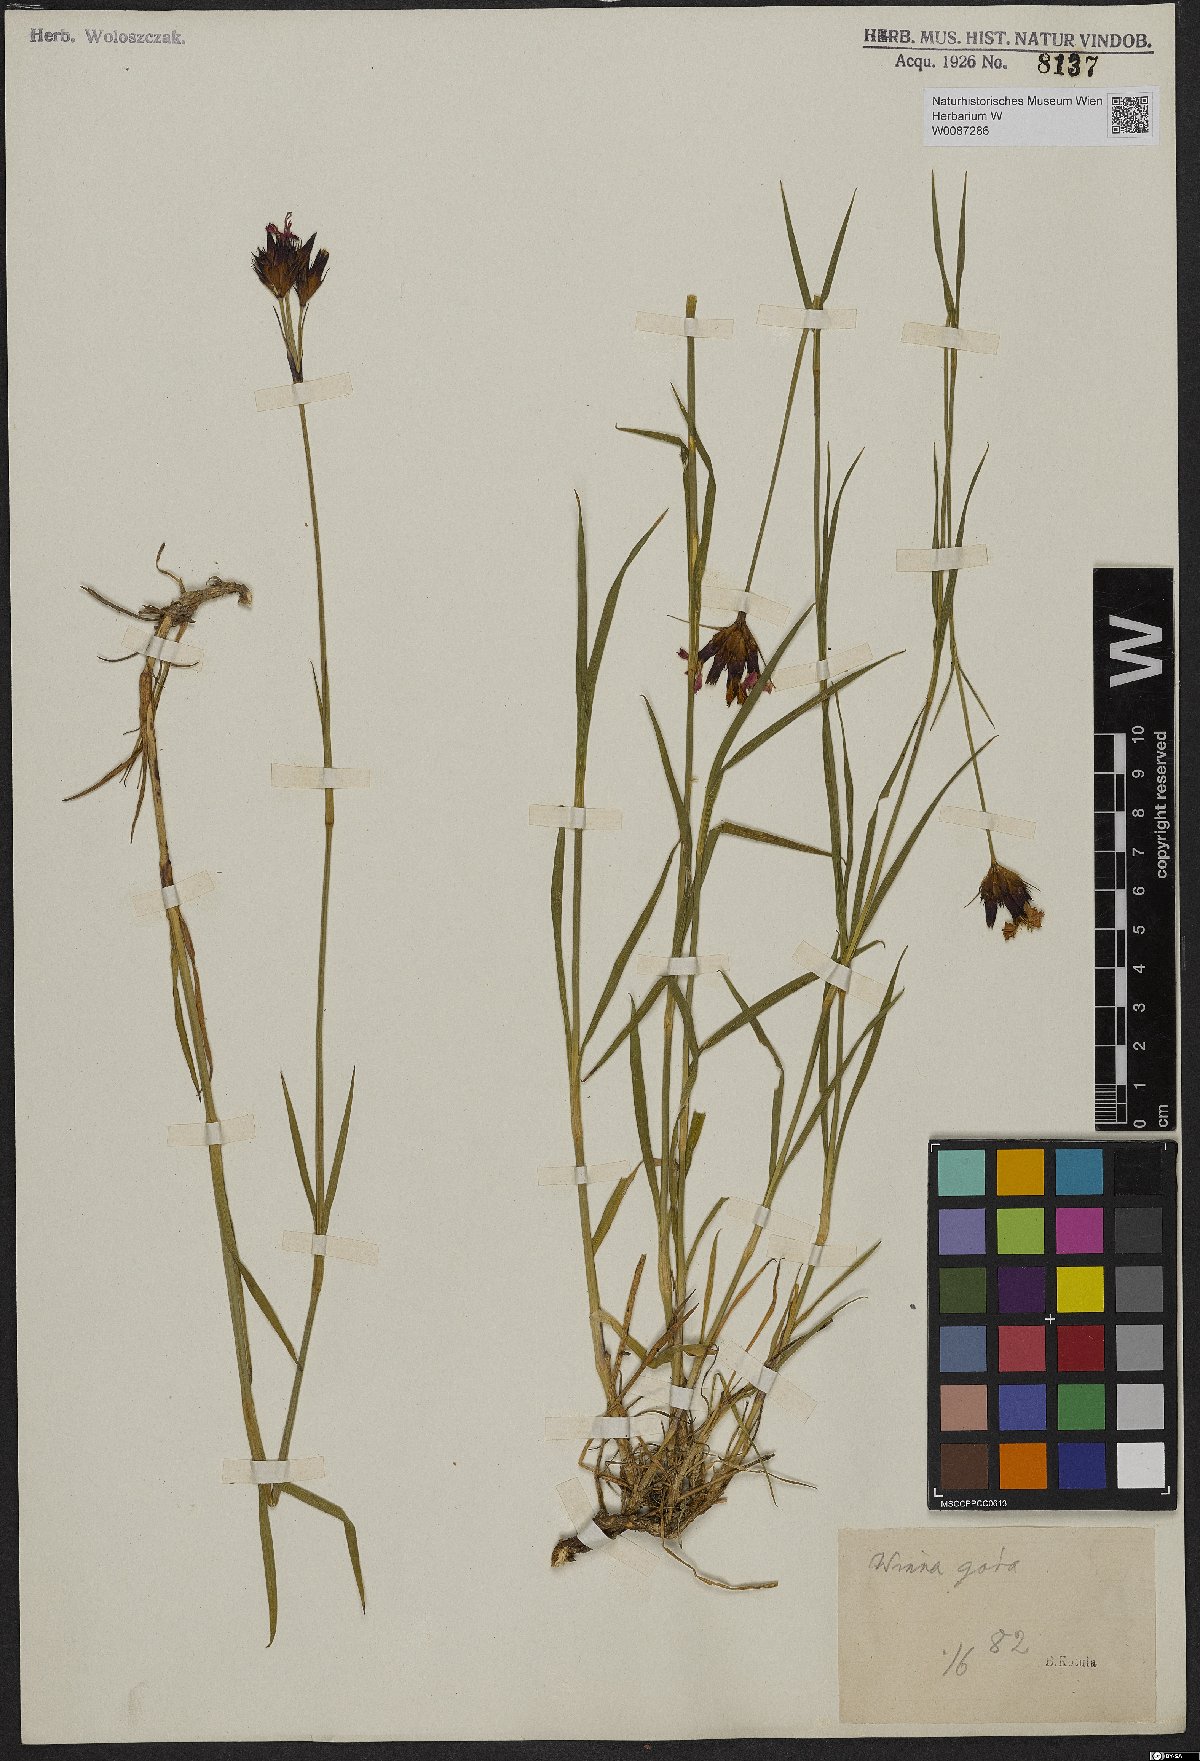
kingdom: Plantae
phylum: Tracheophyta
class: Magnoliopsida
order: Caryophyllales
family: Caryophyllaceae
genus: Dianthus
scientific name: Dianthus carthusianorum
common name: Carthusian pink
